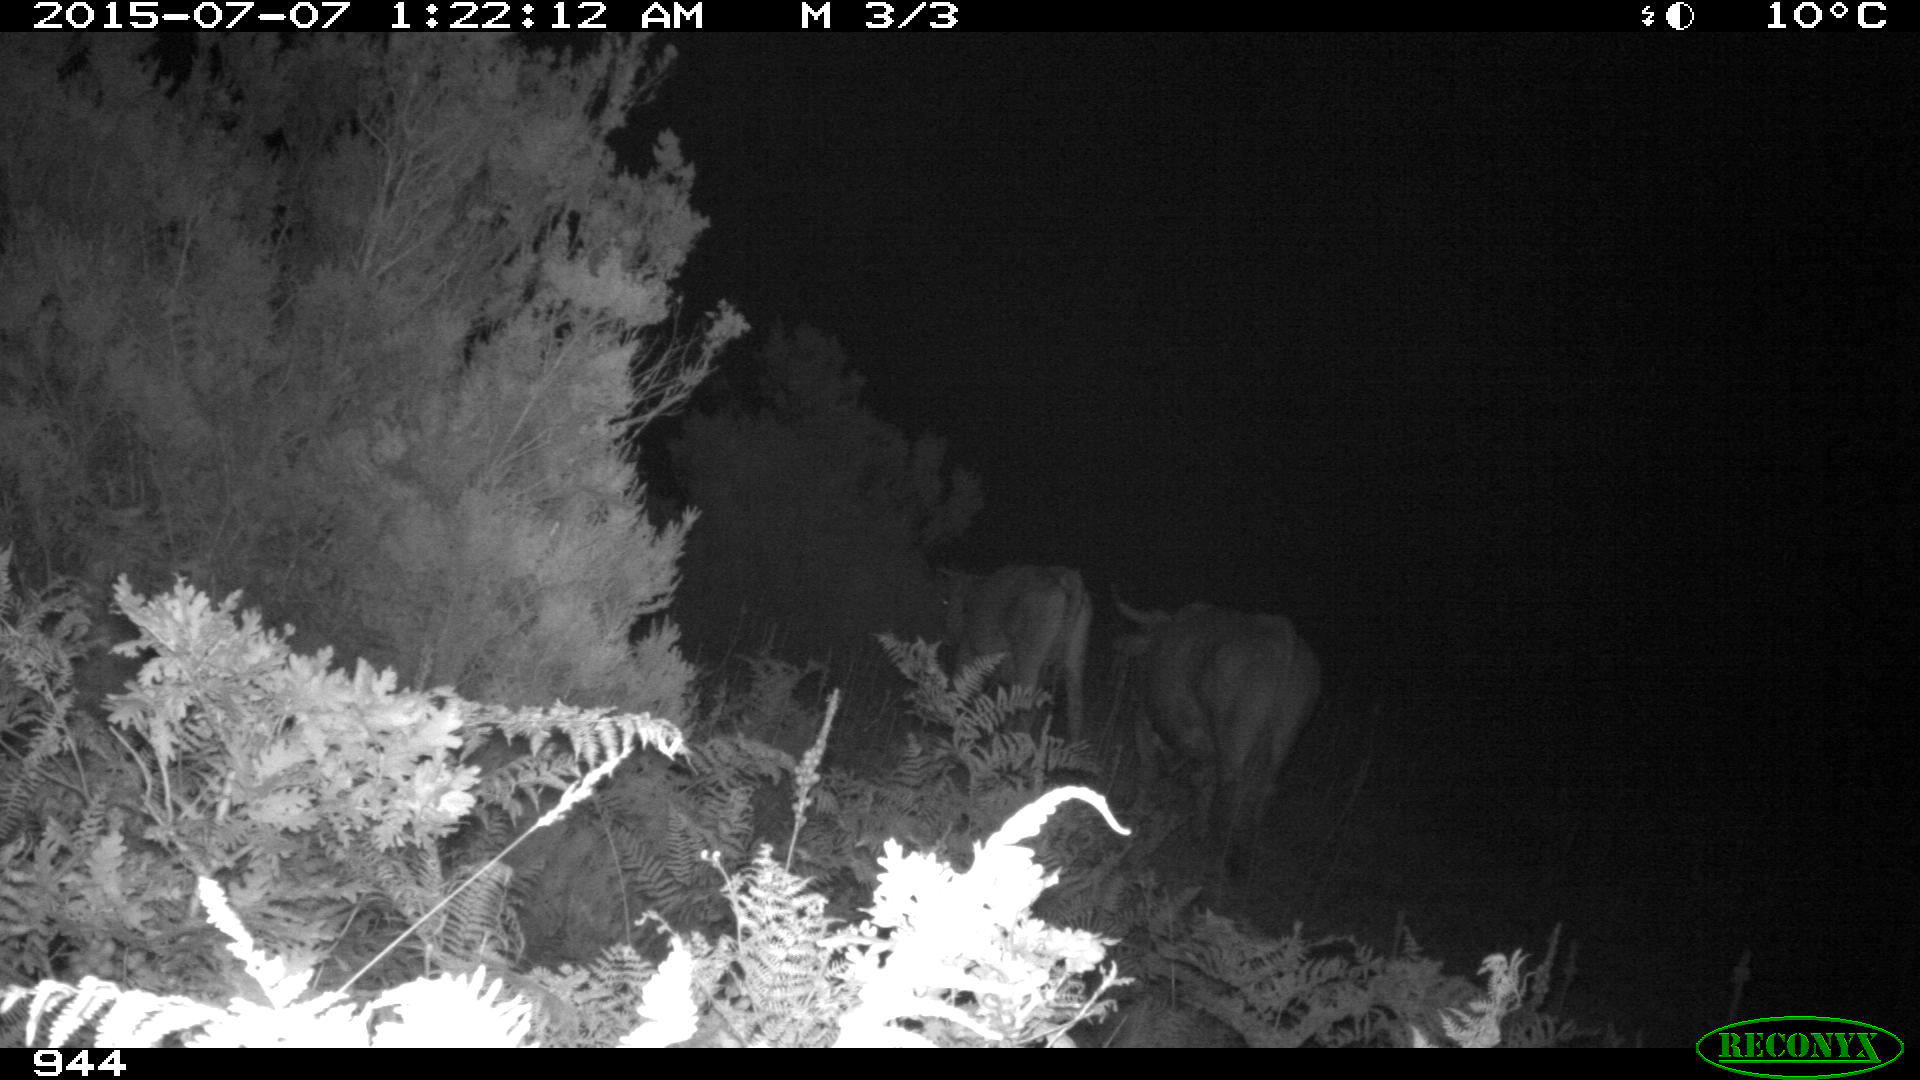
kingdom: Animalia
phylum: Chordata
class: Mammalia
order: Artiodactyla
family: Bovidae
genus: Bos
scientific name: Bos taurus
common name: Domesticated cattle
